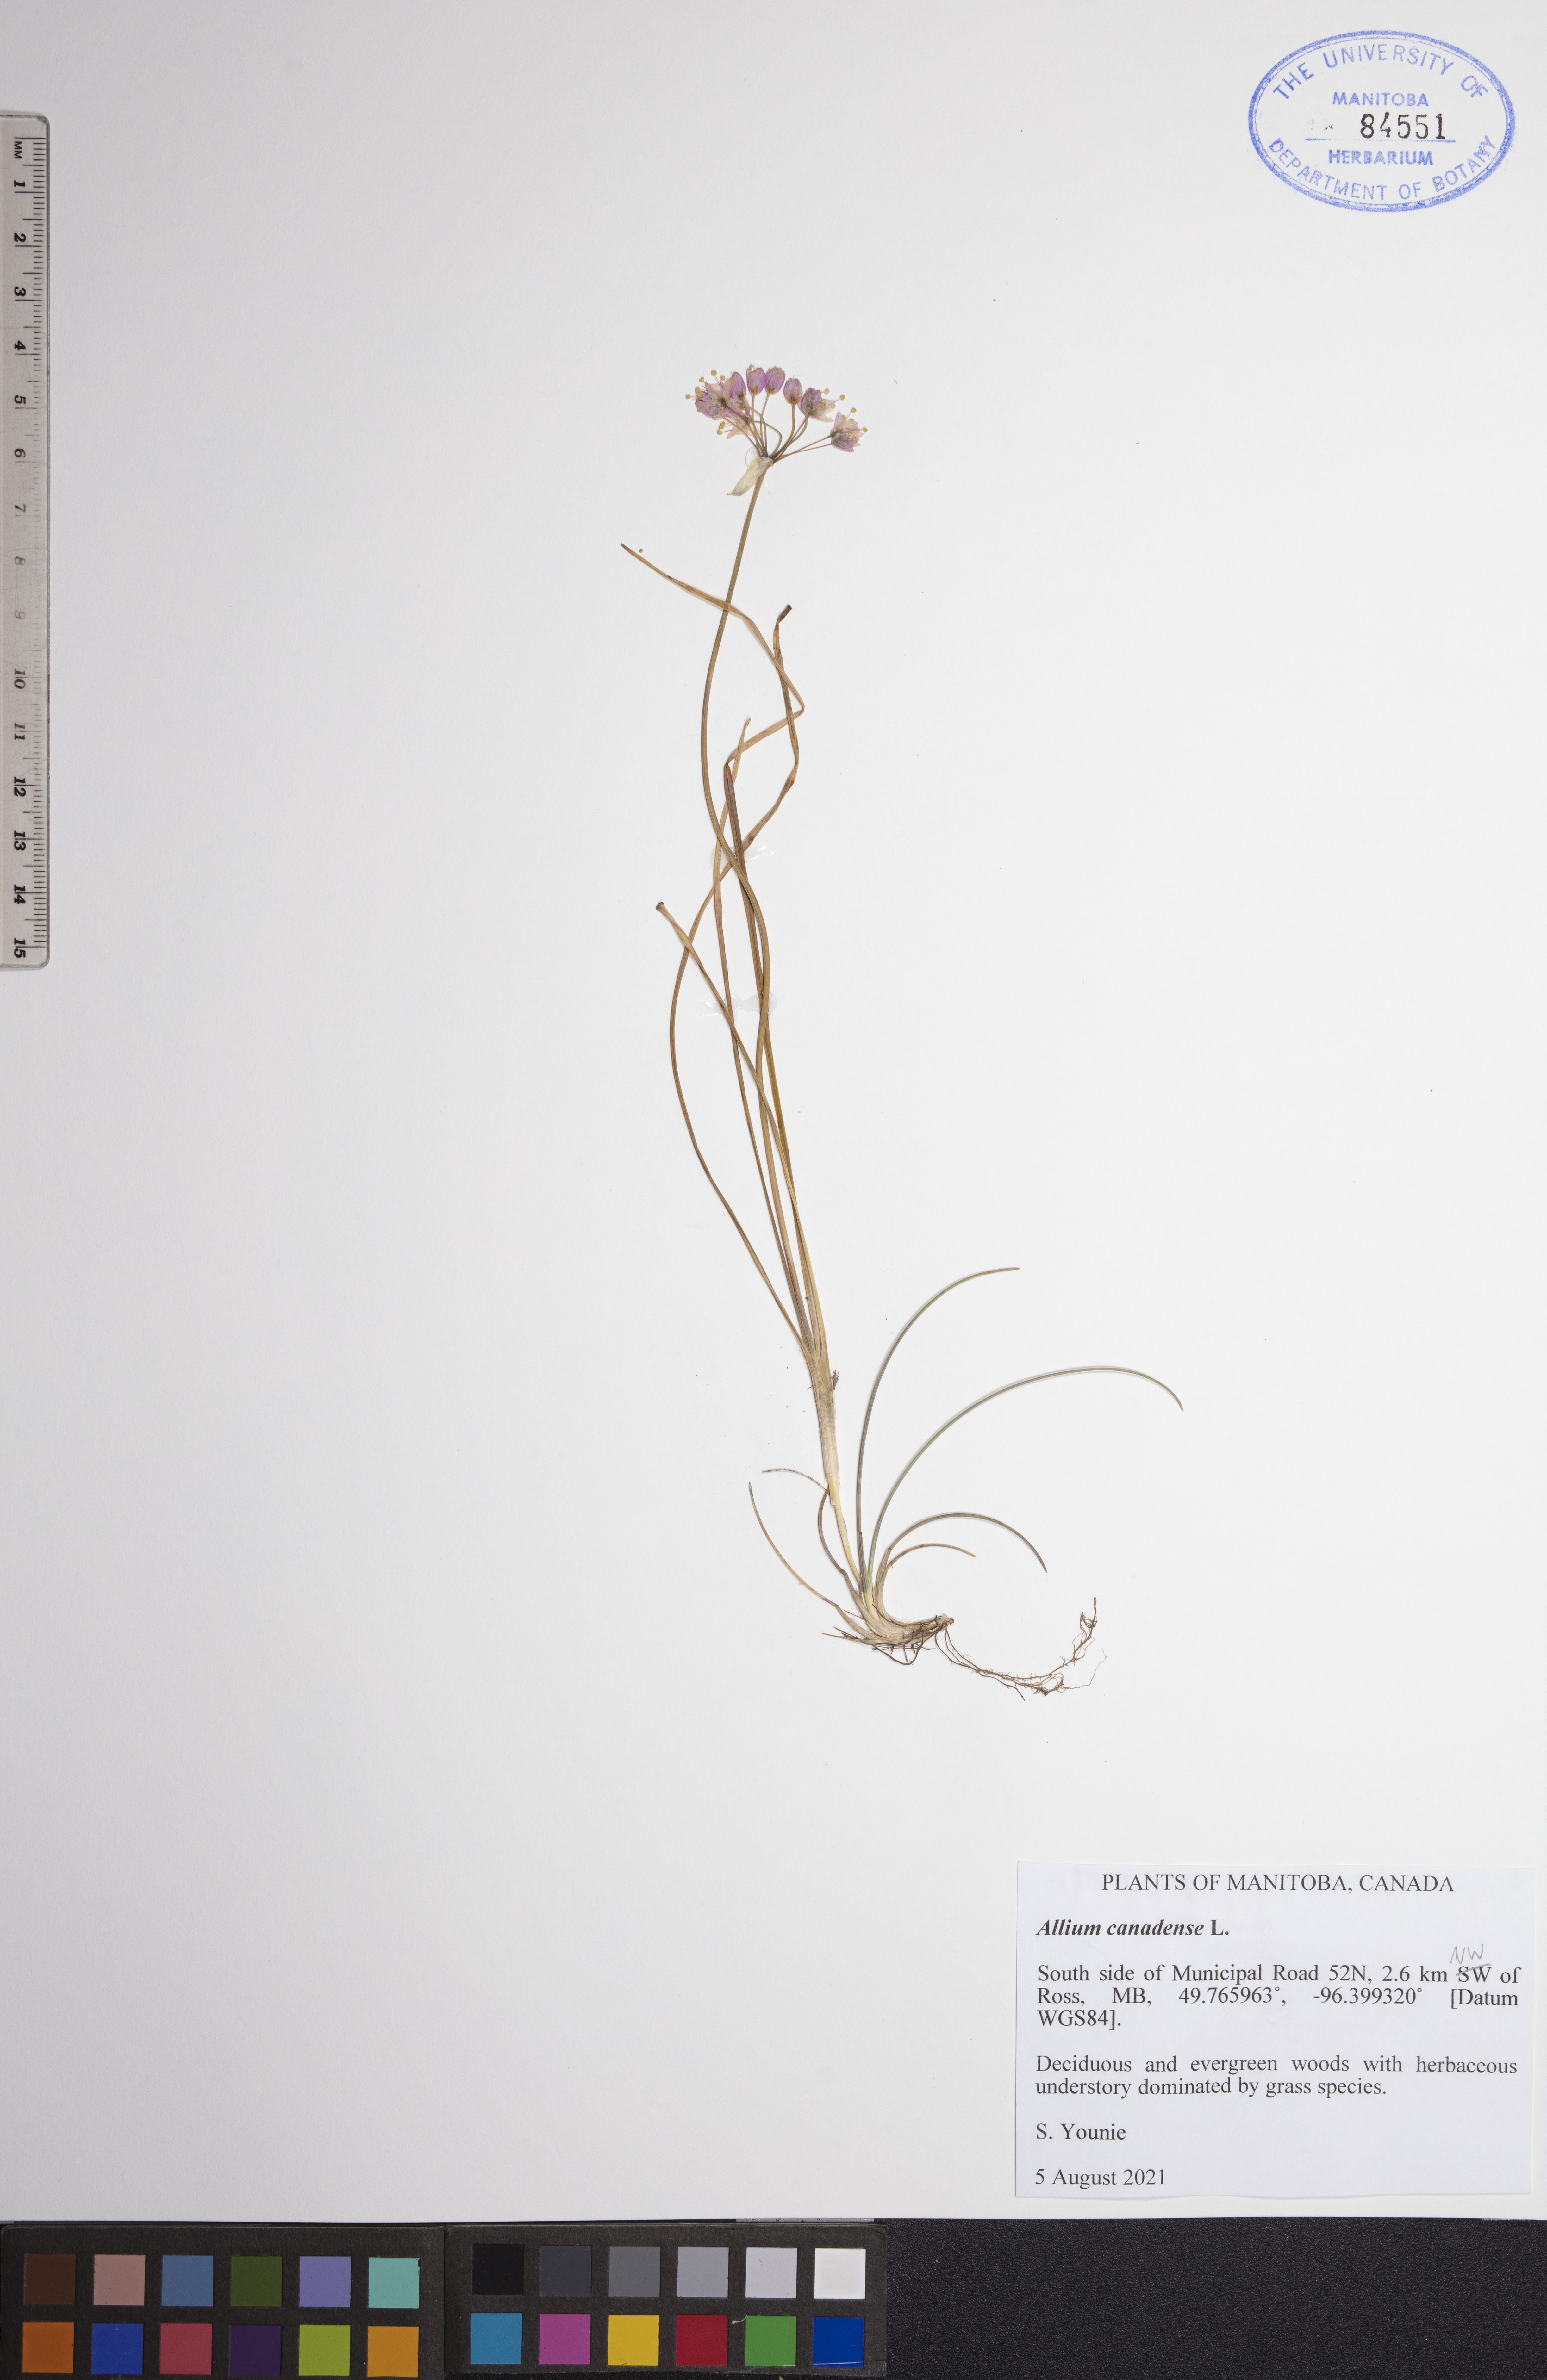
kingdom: Plantae
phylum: Tracheophyta
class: Liliopsida
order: Asparagales
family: Amaryllidaceae
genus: Allium
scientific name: Allium canadense
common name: Meadow garlic
